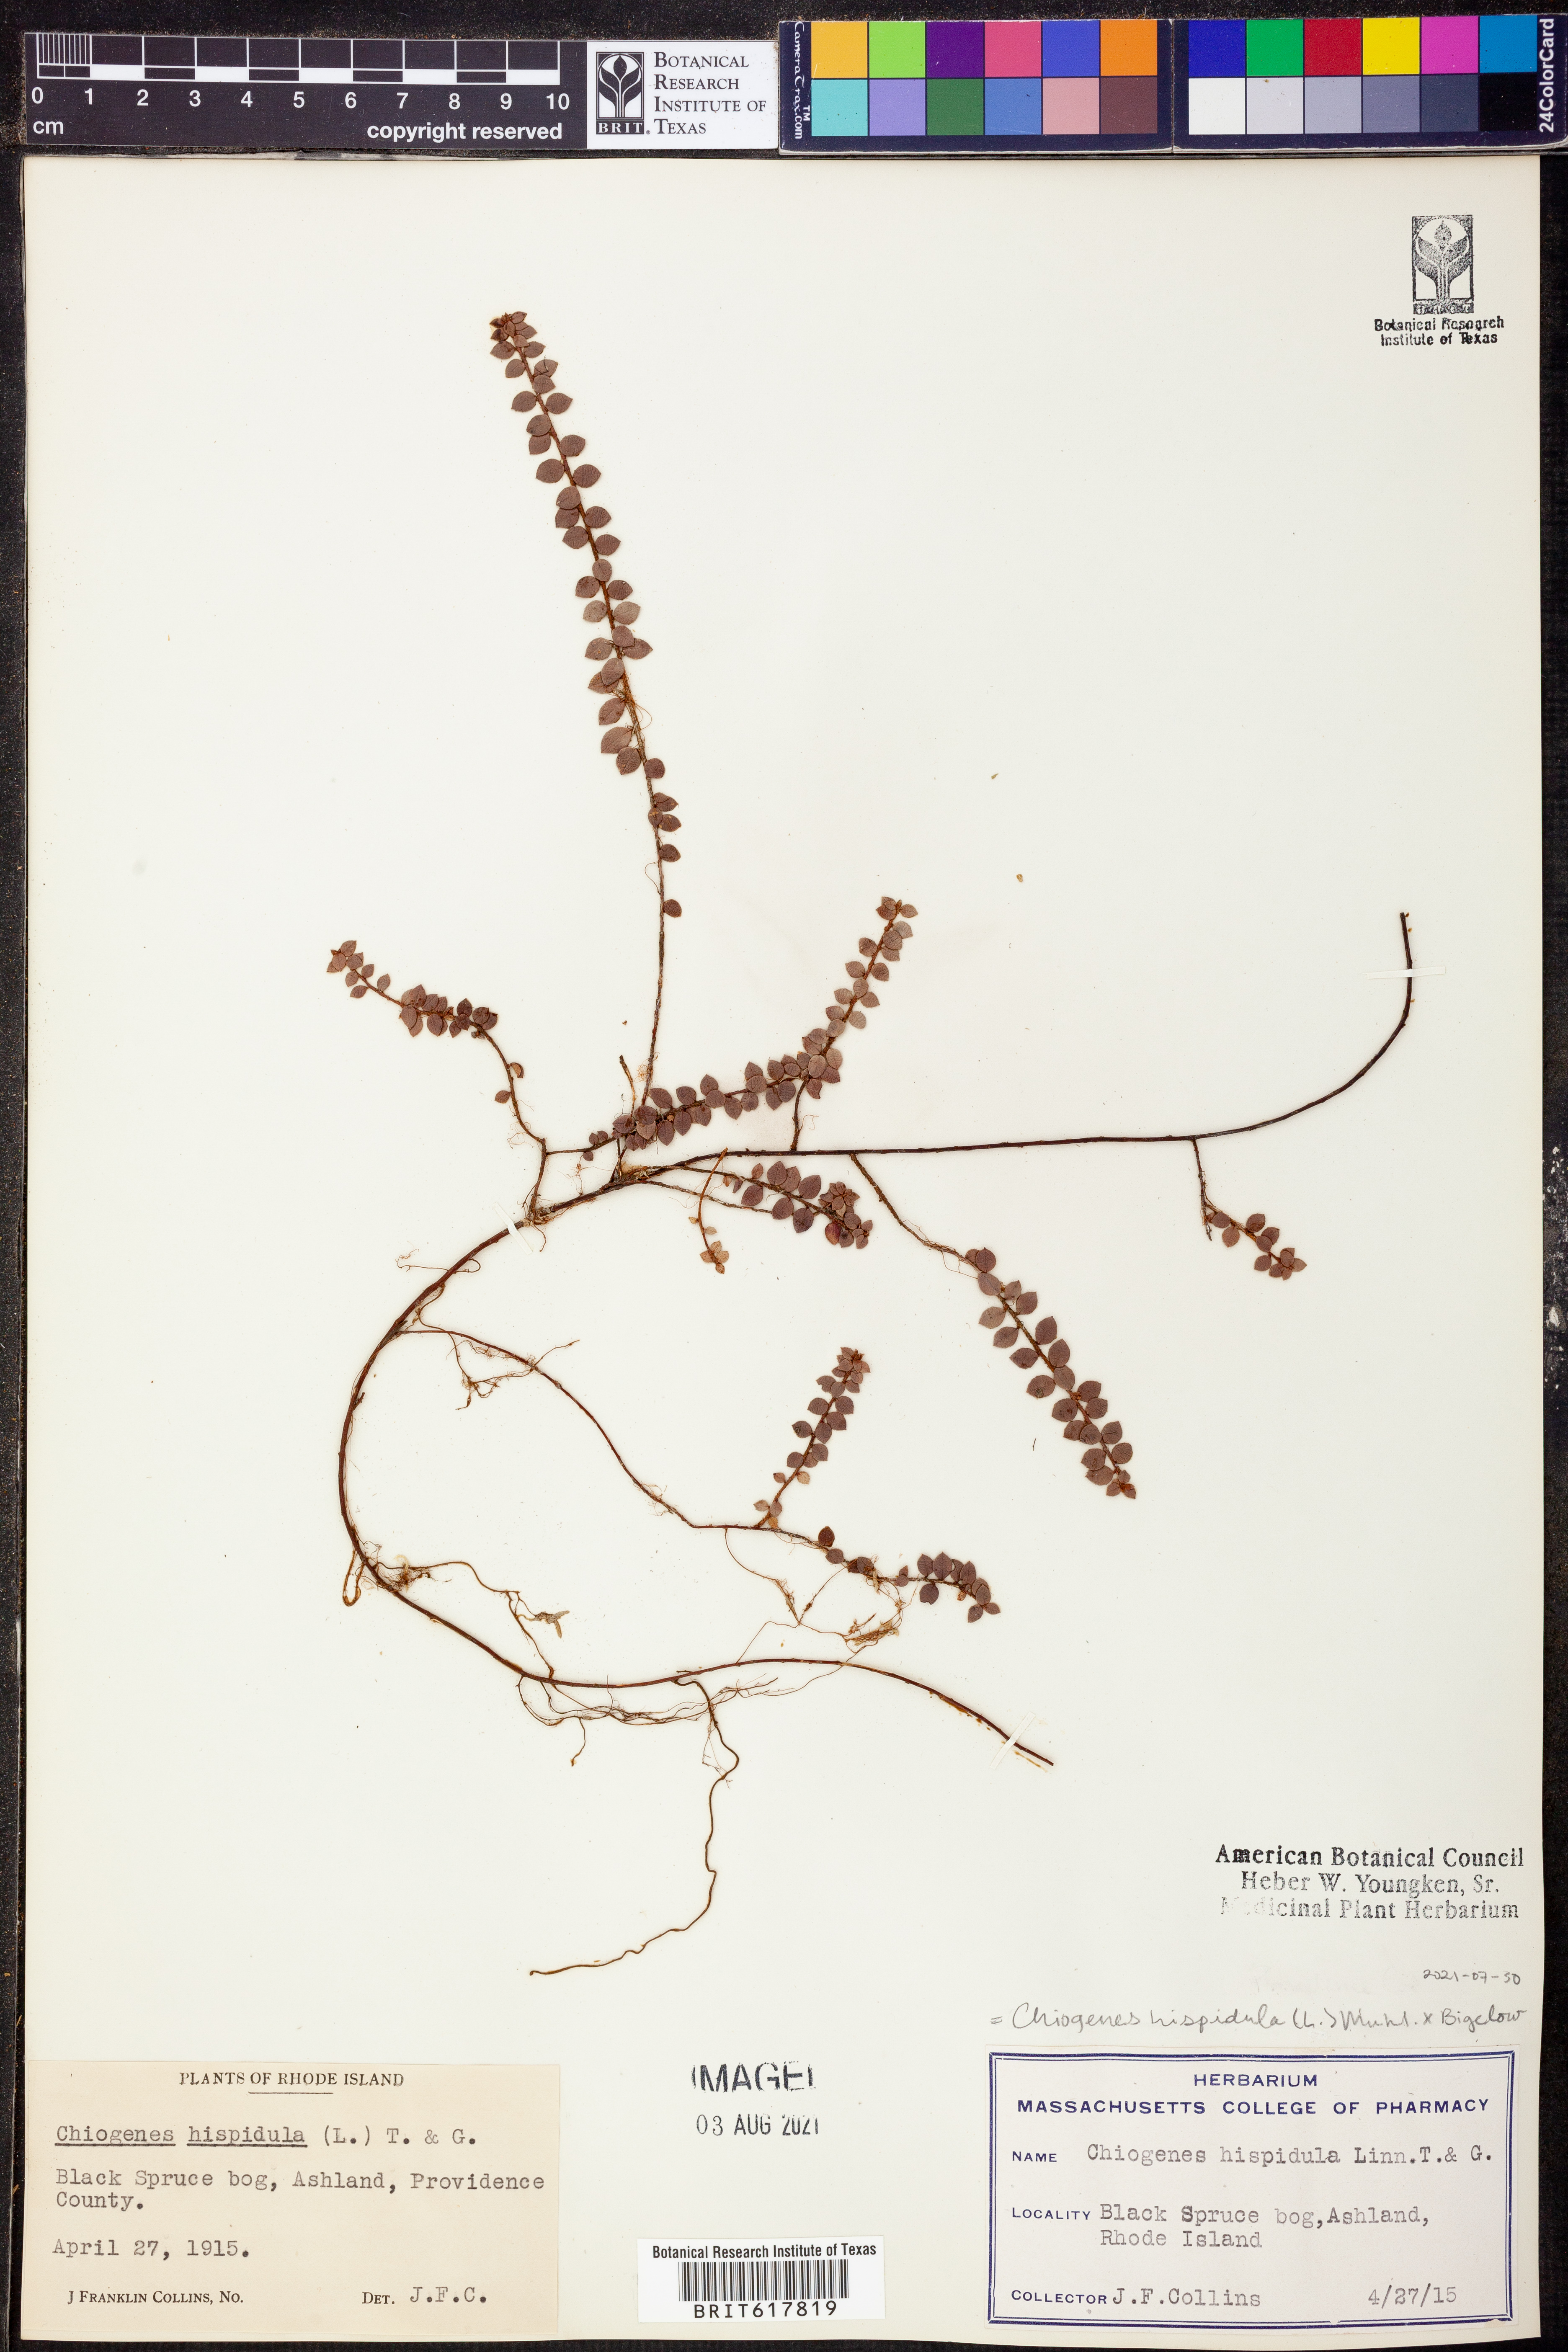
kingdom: Plantae
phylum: Tracheophyta
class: Magnoliopsida
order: Ericales
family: Ericaceae
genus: Gaultheria
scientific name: Gaultheria hispidula
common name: Cancer wintergreen
